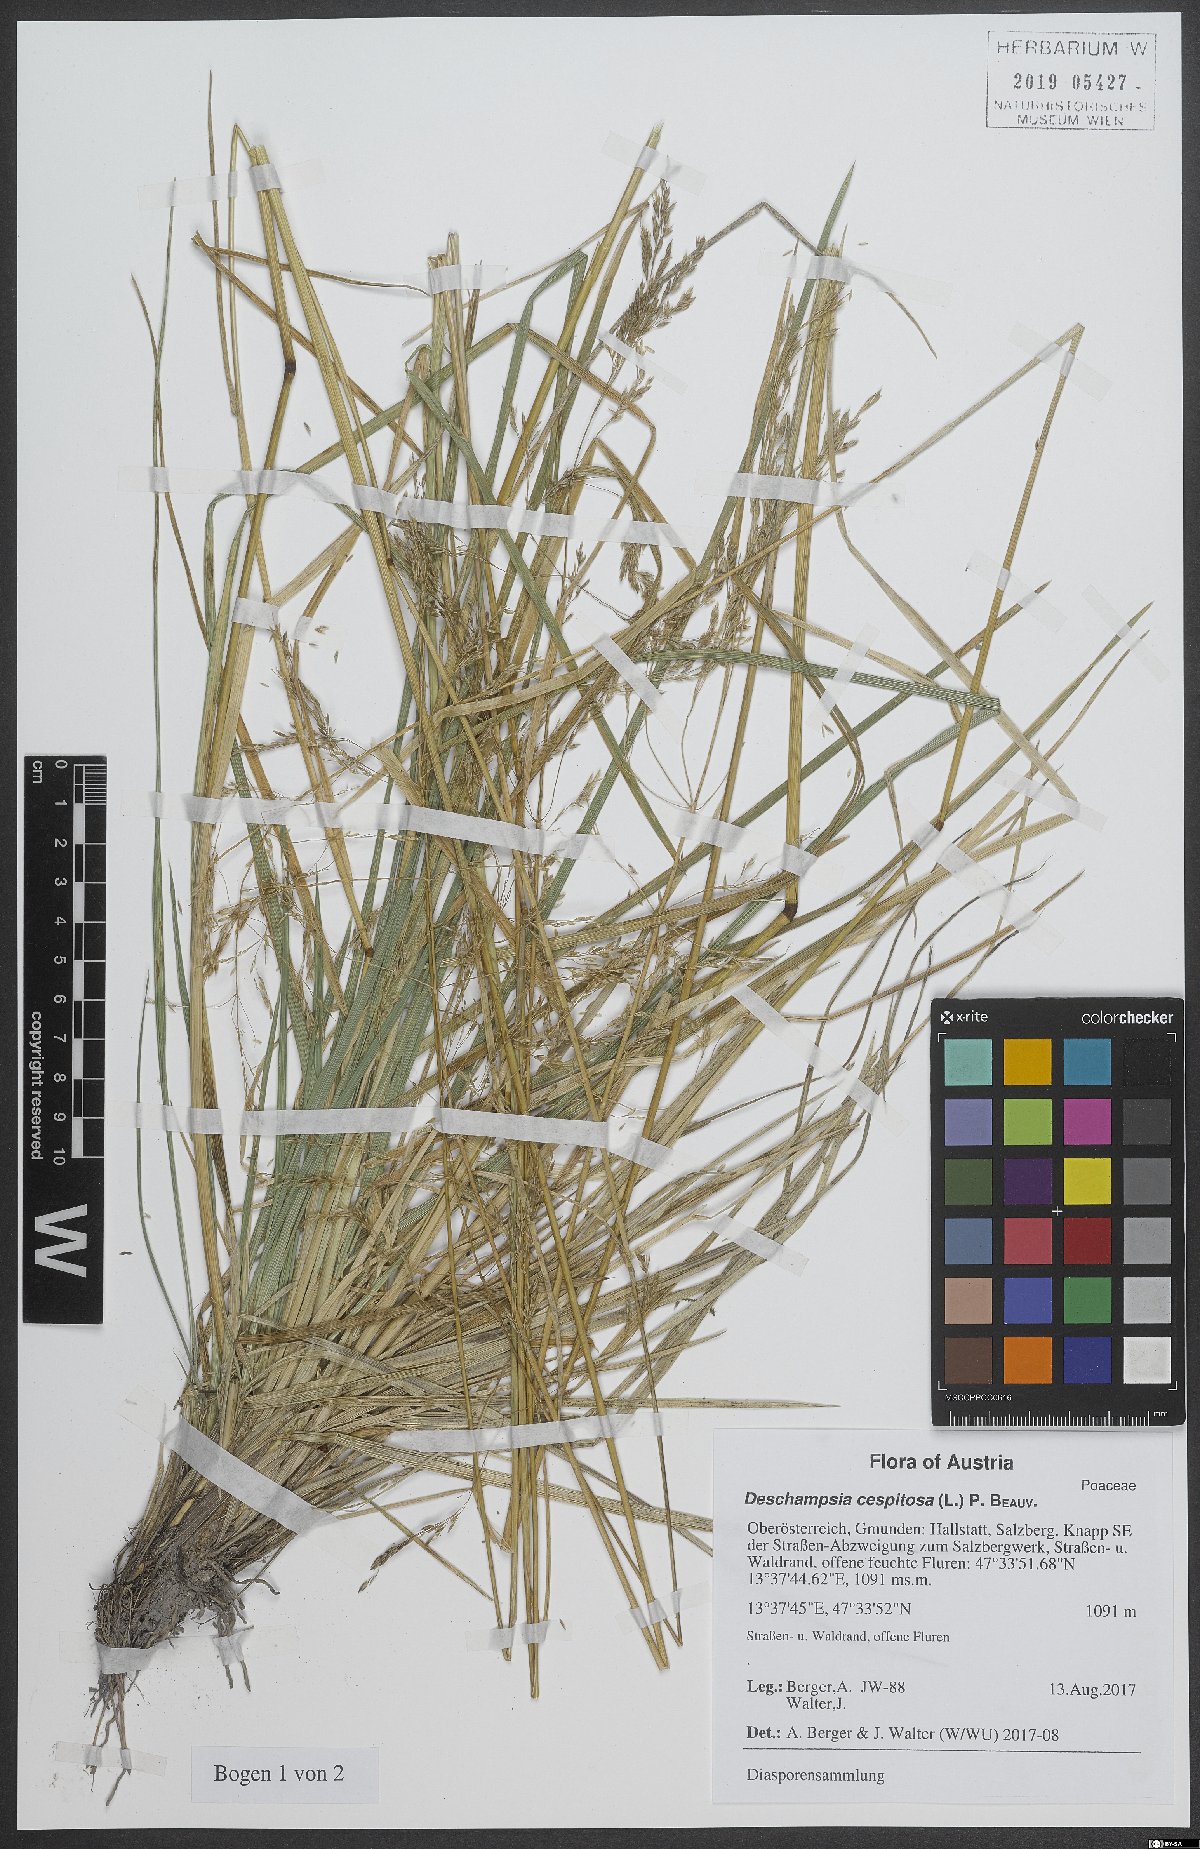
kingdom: Plantae
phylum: Tracheophyta
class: Liliopsida
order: Poales
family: Poaceae
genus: Deschampsia
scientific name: Deschampsia cespitosa
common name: Tufted hair-grass
